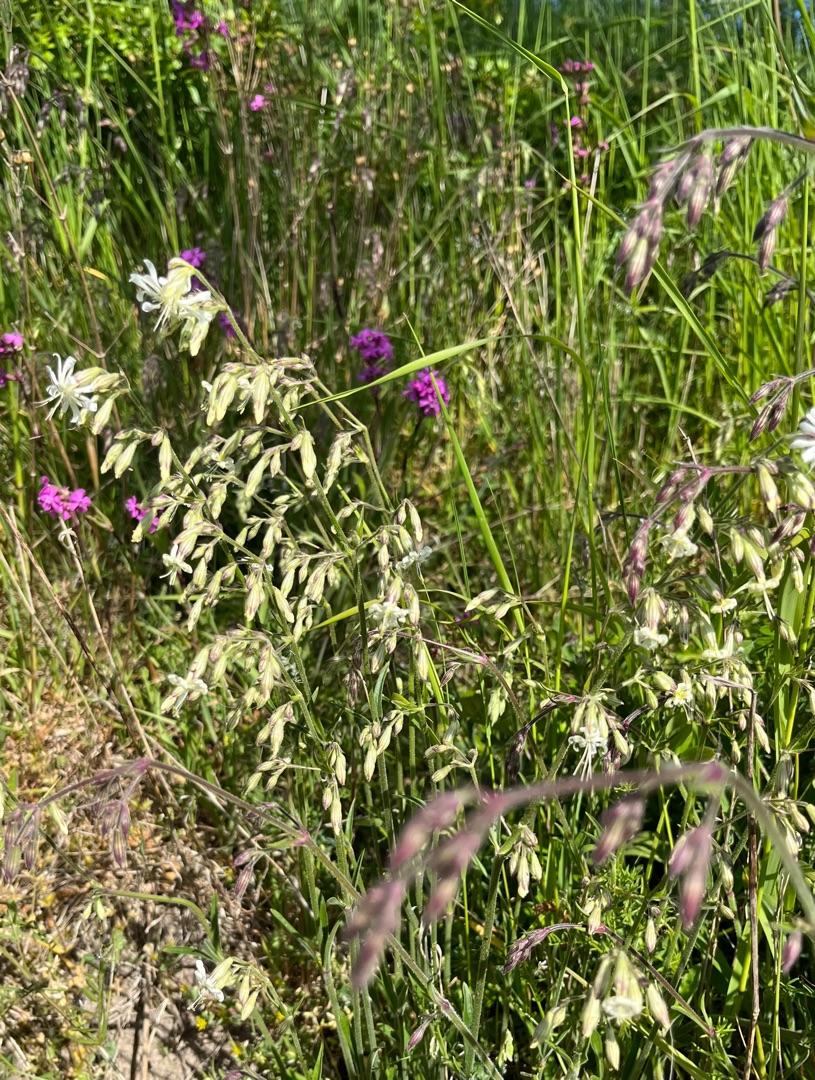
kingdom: Plantae
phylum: Tracheophyta
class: Magnoliopsida
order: Caryophyllales
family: Caryophyllaceae
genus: Silene
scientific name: Silene nutans
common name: Nikkende limurt
